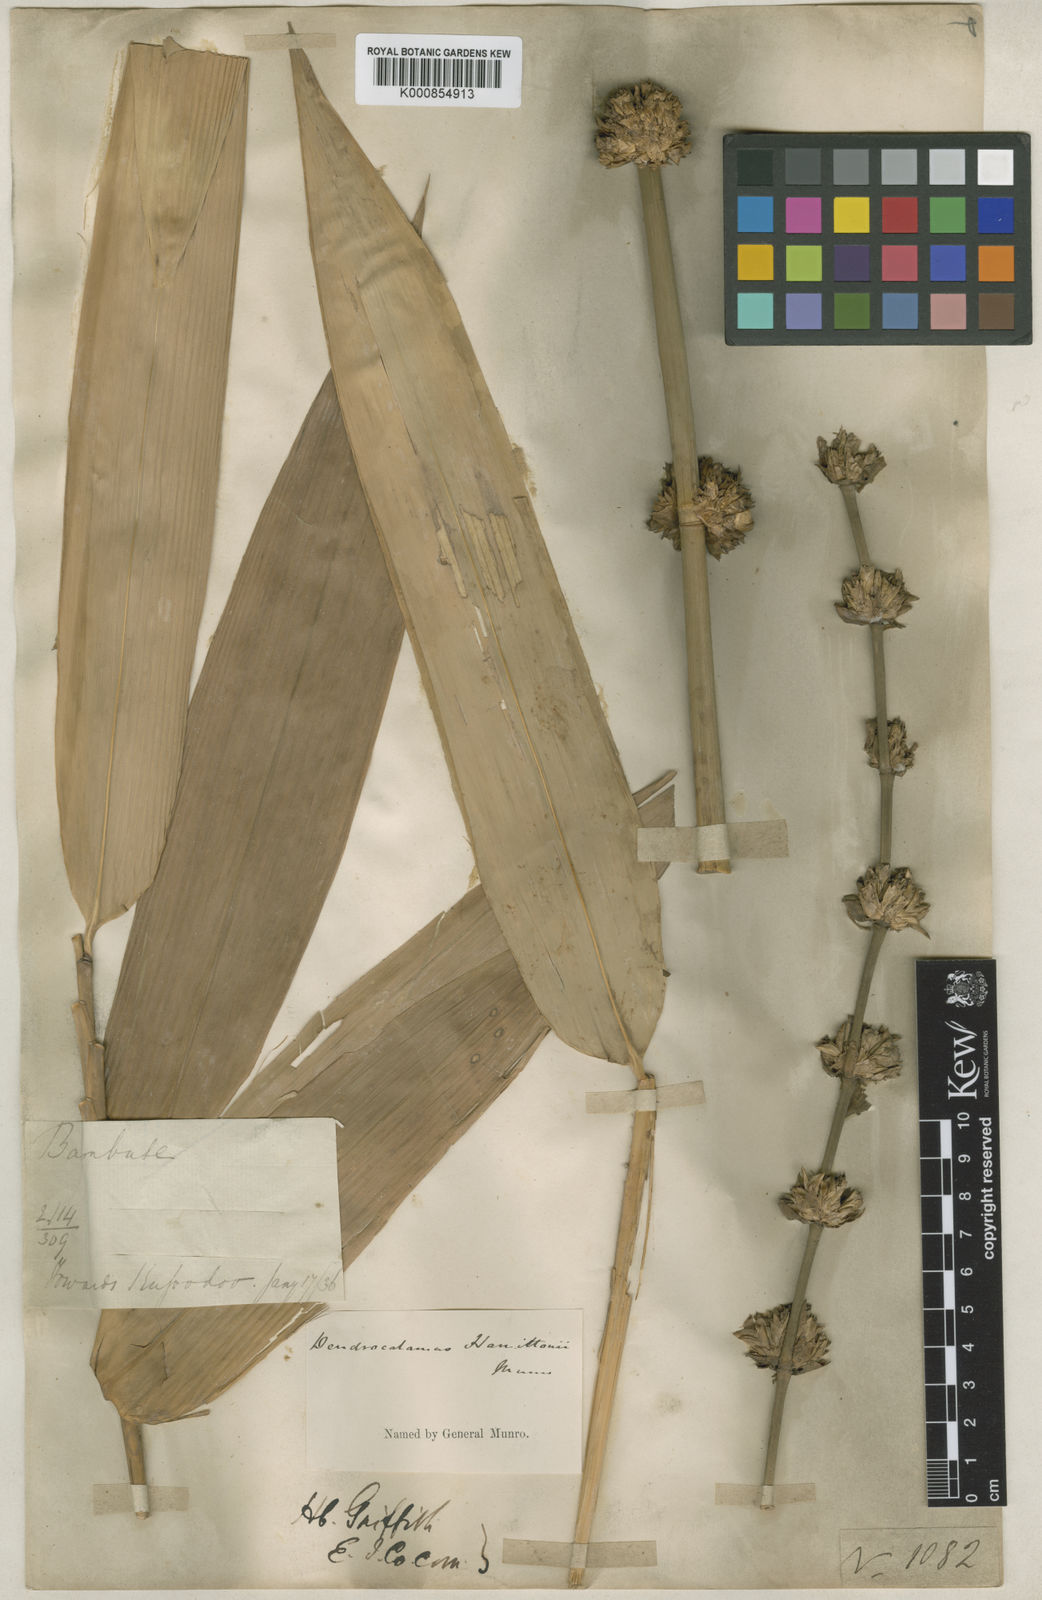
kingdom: Plantae
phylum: Tracheophyta
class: Liliopsida
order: Poales
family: Poaceae
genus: Dendrocalamus
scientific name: Dendrocalamus hamiltonii
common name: Tama bamboo
